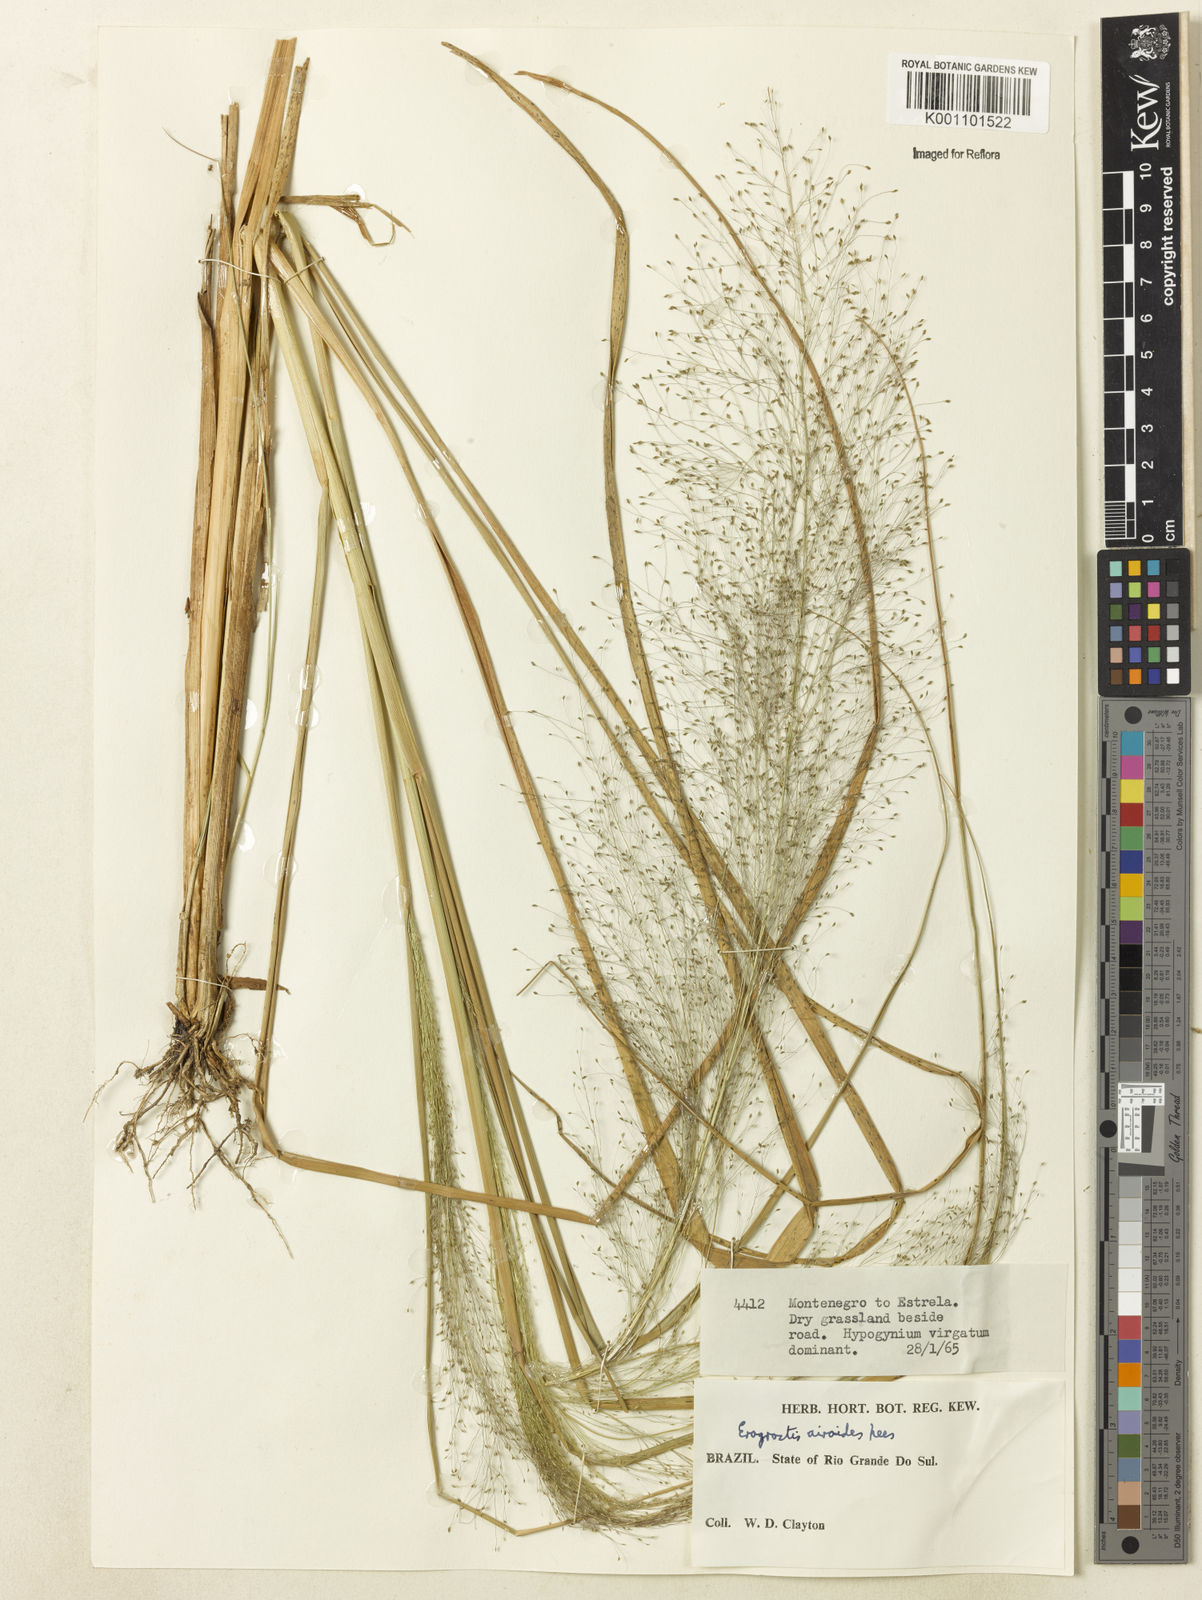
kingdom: Plantae
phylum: Tracheophyta
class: Liliopsida
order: Poales
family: Poaceae
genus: Eragrostis
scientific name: Eragrostis airoides
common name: Darnel lovegrass
